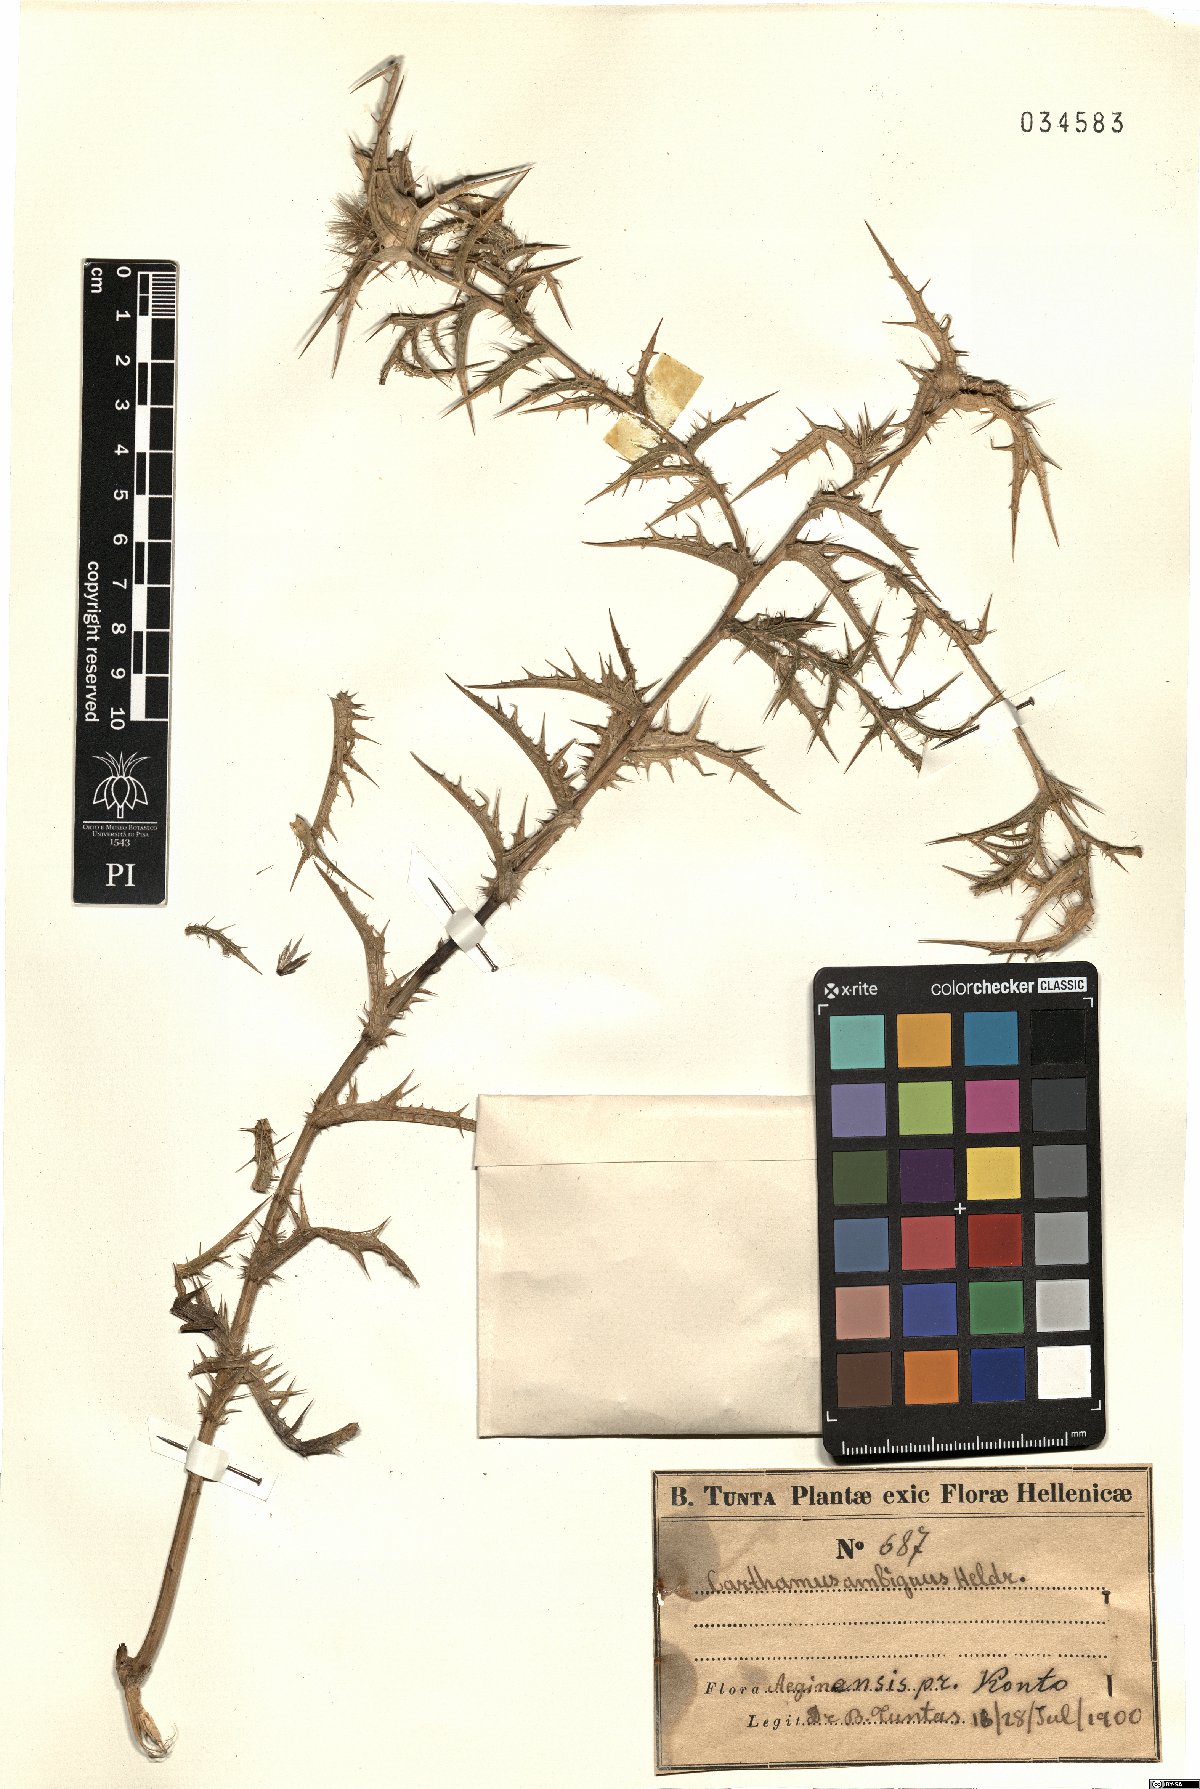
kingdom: Plantae
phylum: Tracheophyta
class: Magnoliopsida
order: Asterales
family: Asteraceae
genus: Carthamus
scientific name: Carthamus dentatus
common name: Toothed thistle
